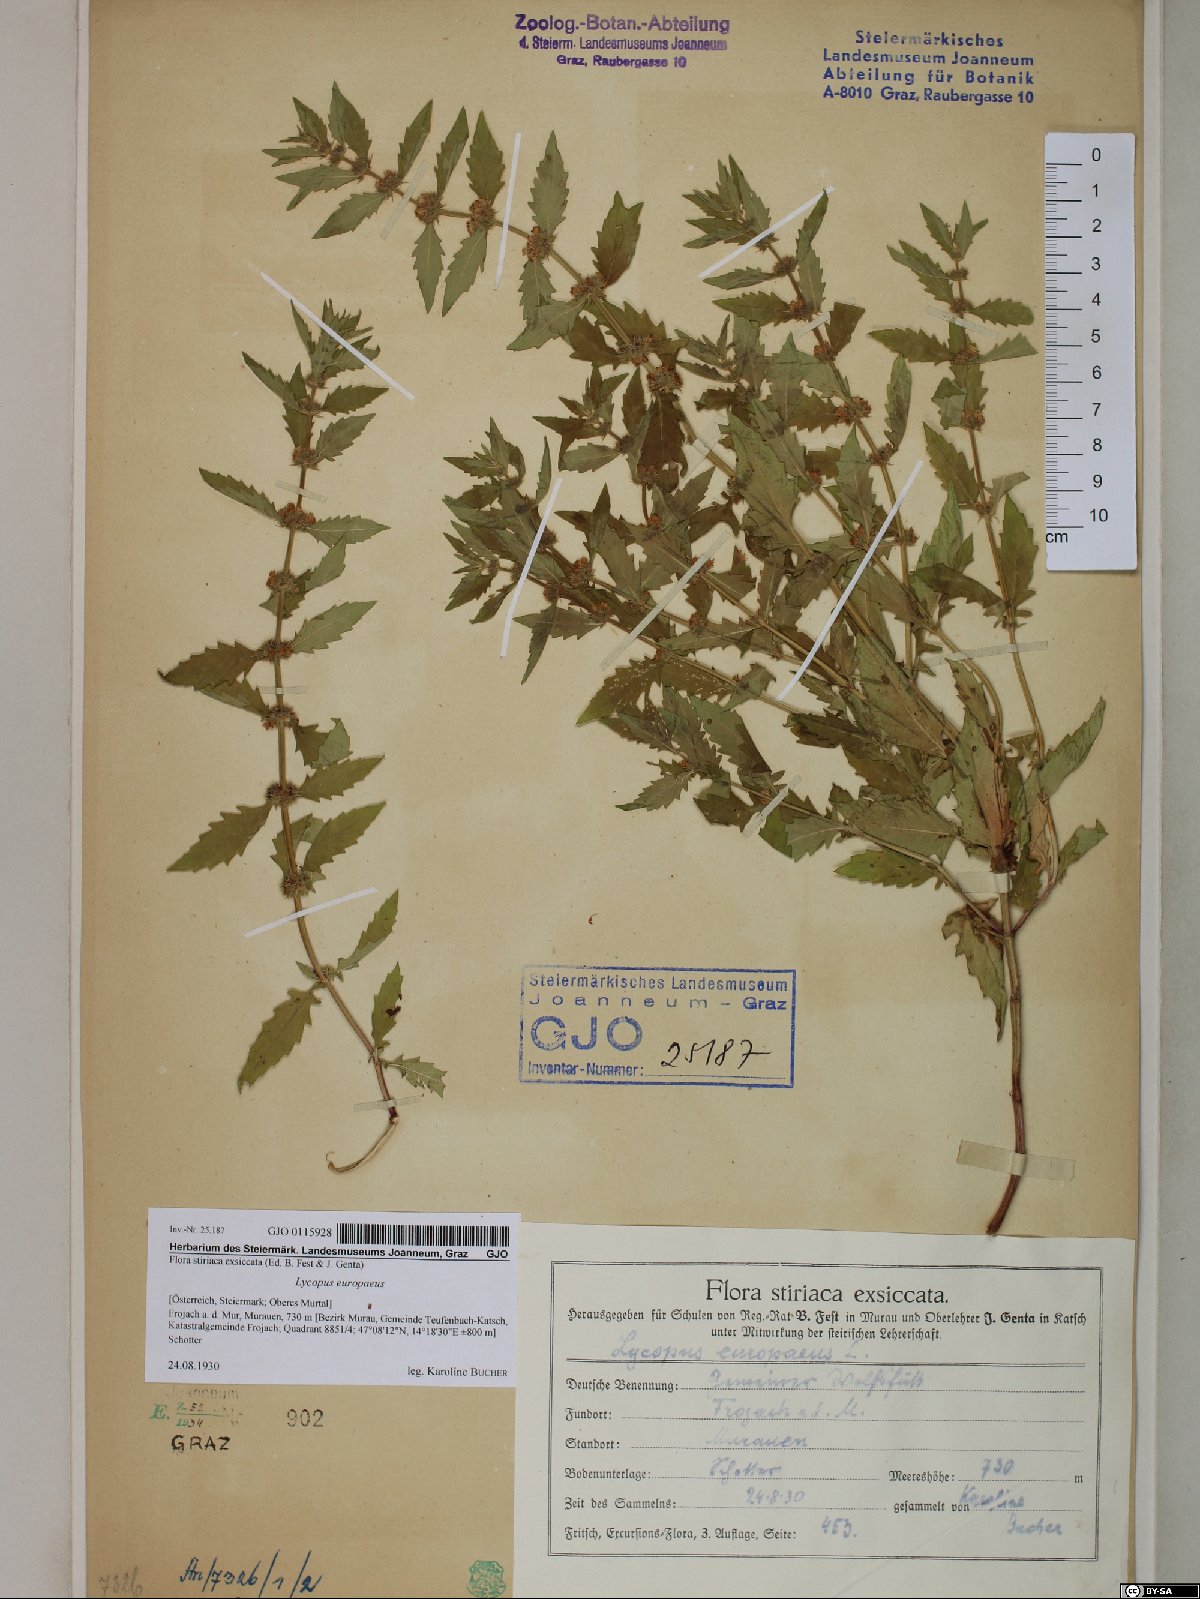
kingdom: Plantae
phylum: Tracheophyta
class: Magnoliopsida
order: Lamiales
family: Lamiaceae
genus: Lycopus
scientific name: Lycopus europaeus
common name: European bugleweed
